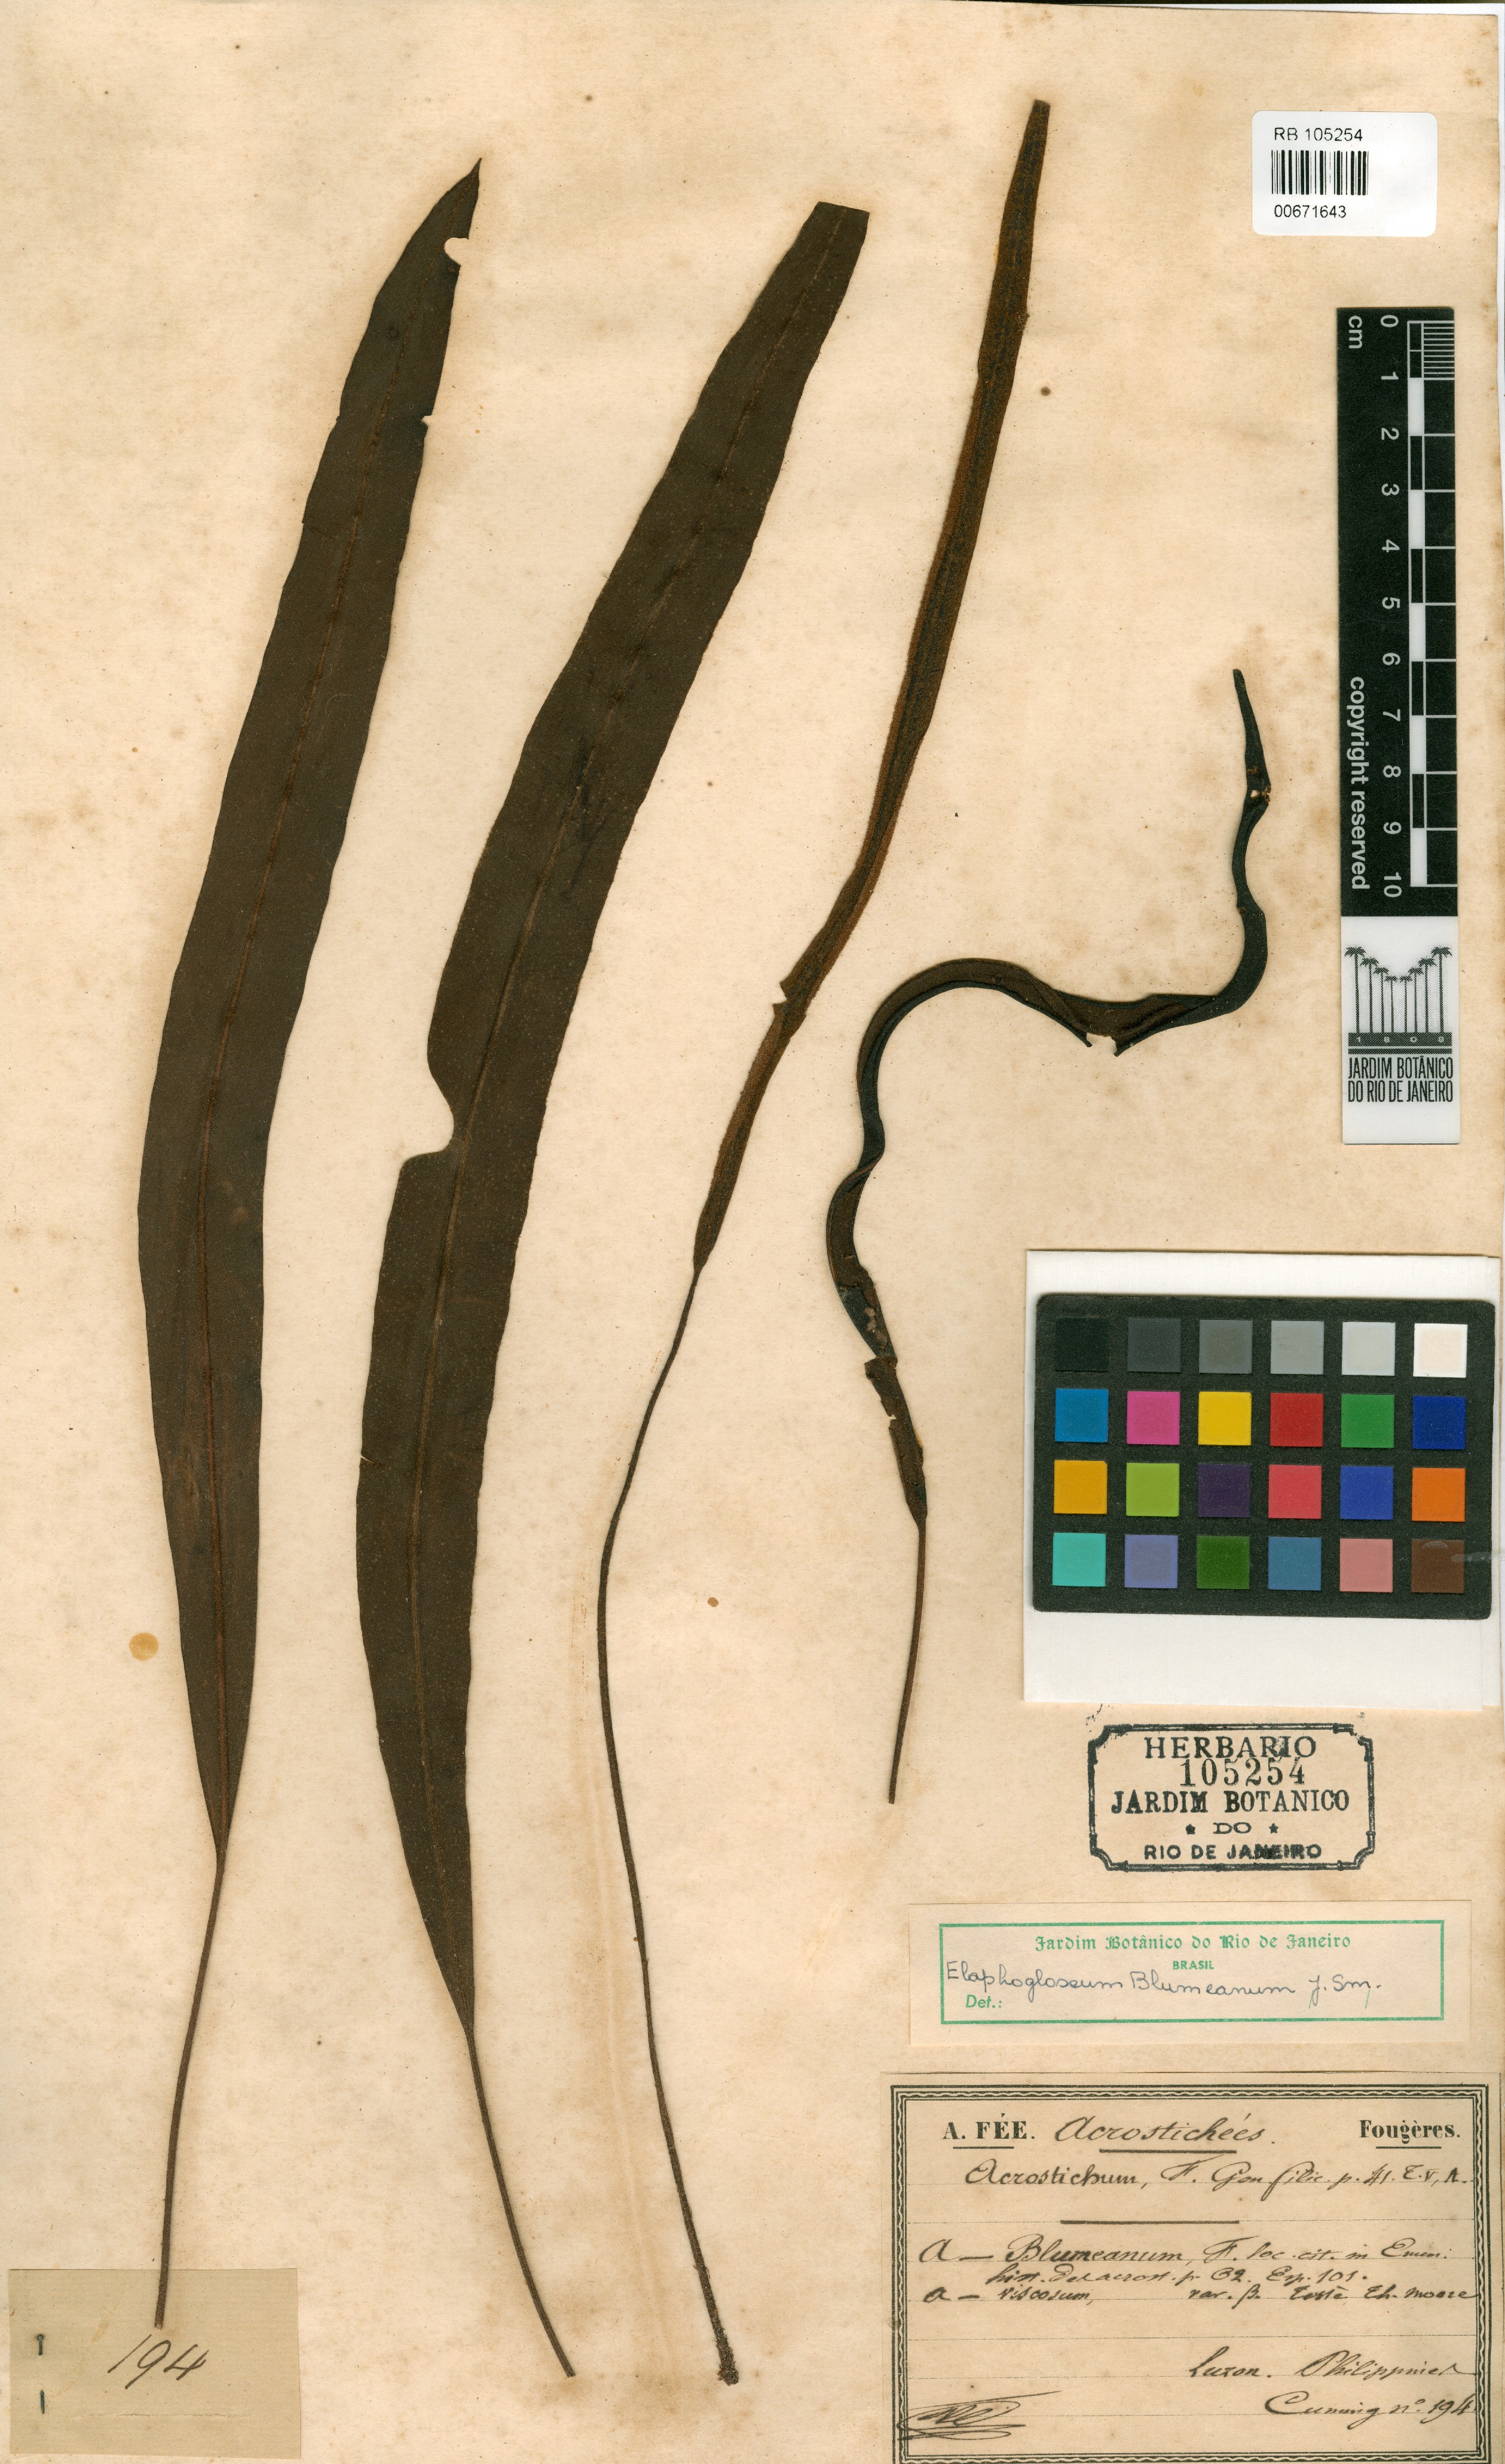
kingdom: Plantae
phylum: Tracheophyta
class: Polypodiopsida
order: Polypodiales
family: Dryopteridaceae
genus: Elaphoglossum
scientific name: Elaphoglossum blumeanum
